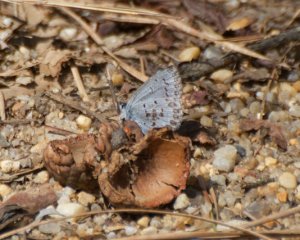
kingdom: Animalia
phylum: Arthropoda
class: Insecta
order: Lepidoptera
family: Lycaenidae
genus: Celastrina
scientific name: Celastrina ladon
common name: Spring Azure
